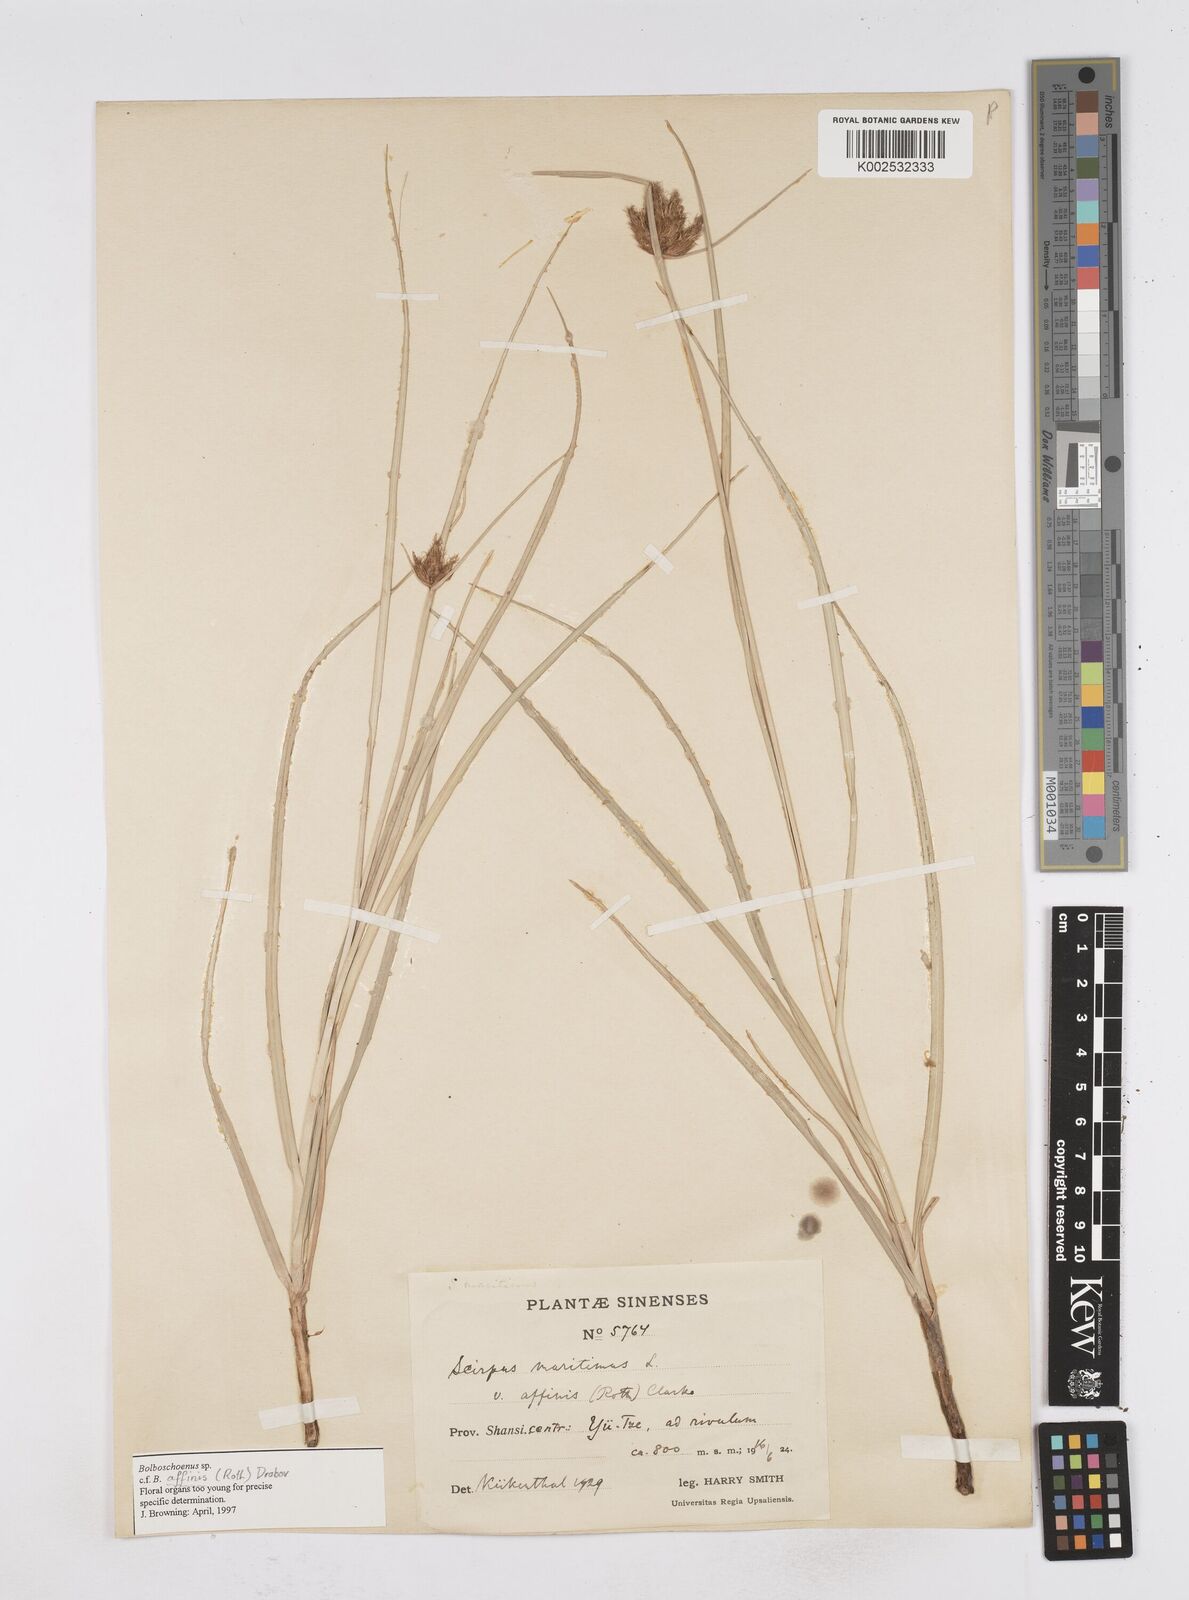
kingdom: Plantae
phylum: Tracheophyta
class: Liliopsida
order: Poales
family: Cyperaceae
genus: Bolboschoenus
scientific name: Bolboschoenus maritimus
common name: Sea club-rush
